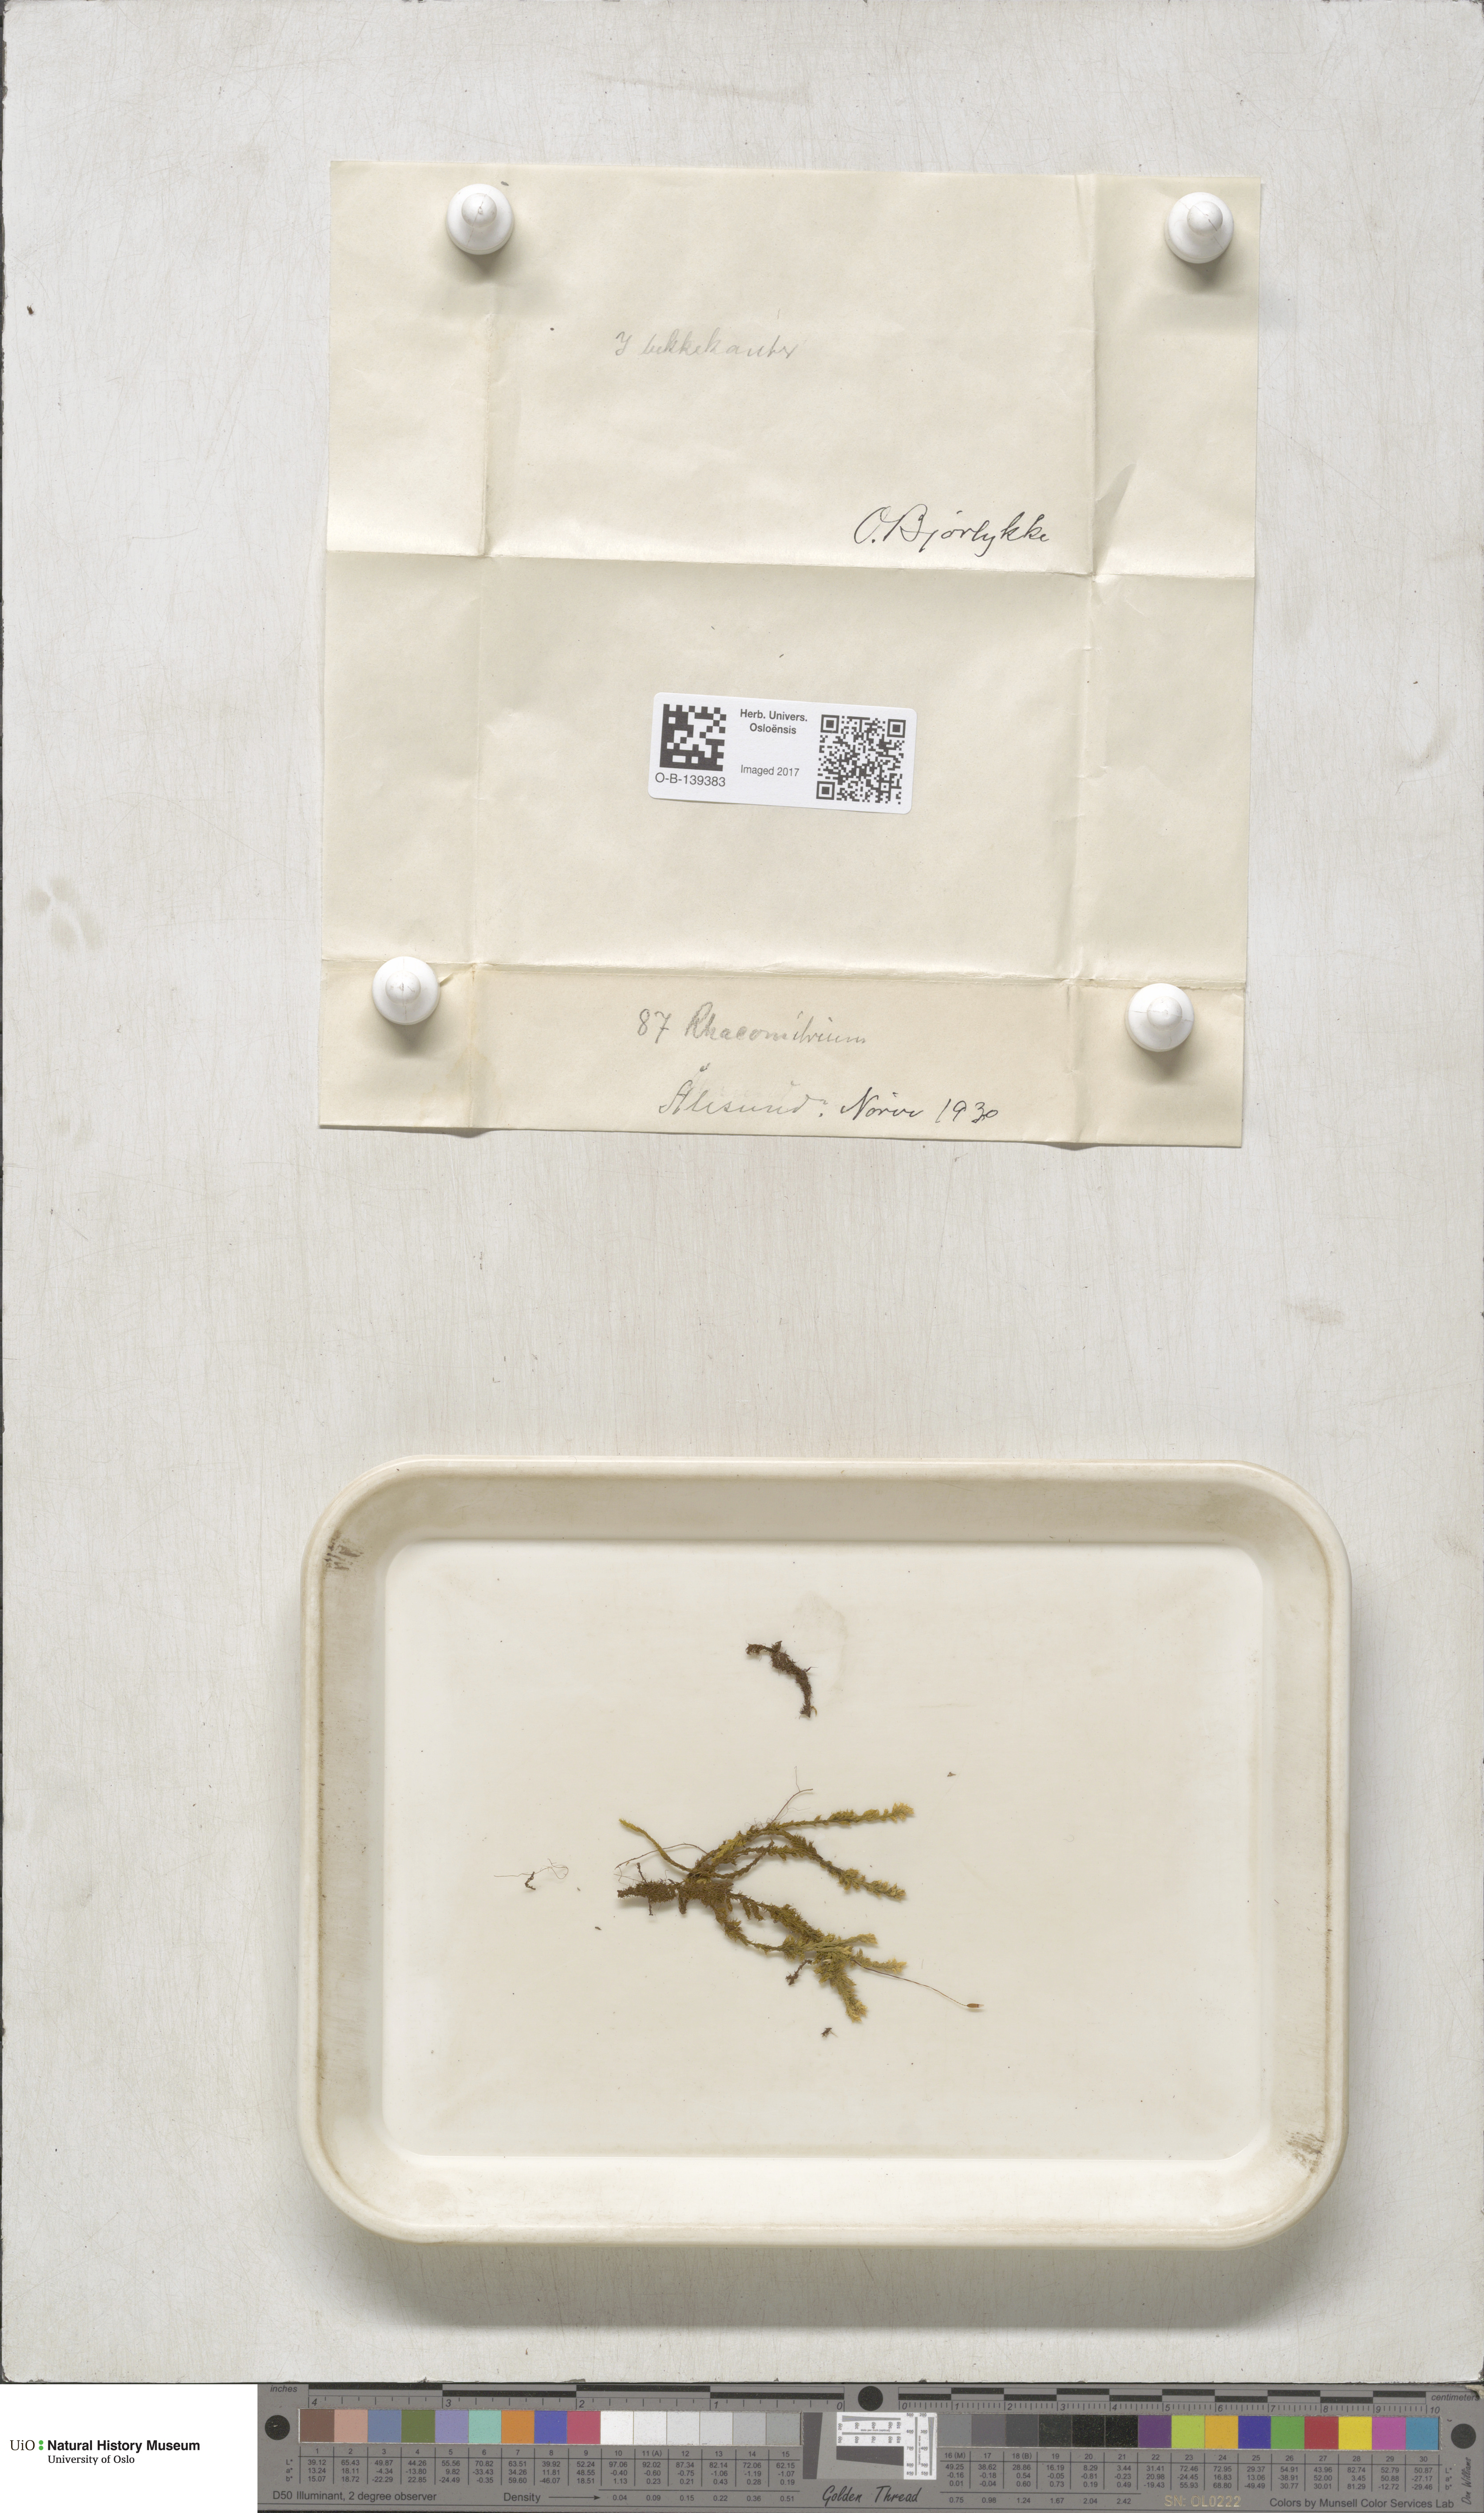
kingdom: Plantae
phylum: Bryophyta
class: Bryopsida
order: Grimmiales
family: Grimmiaceae
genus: Racomitrium
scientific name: Racomitrium
